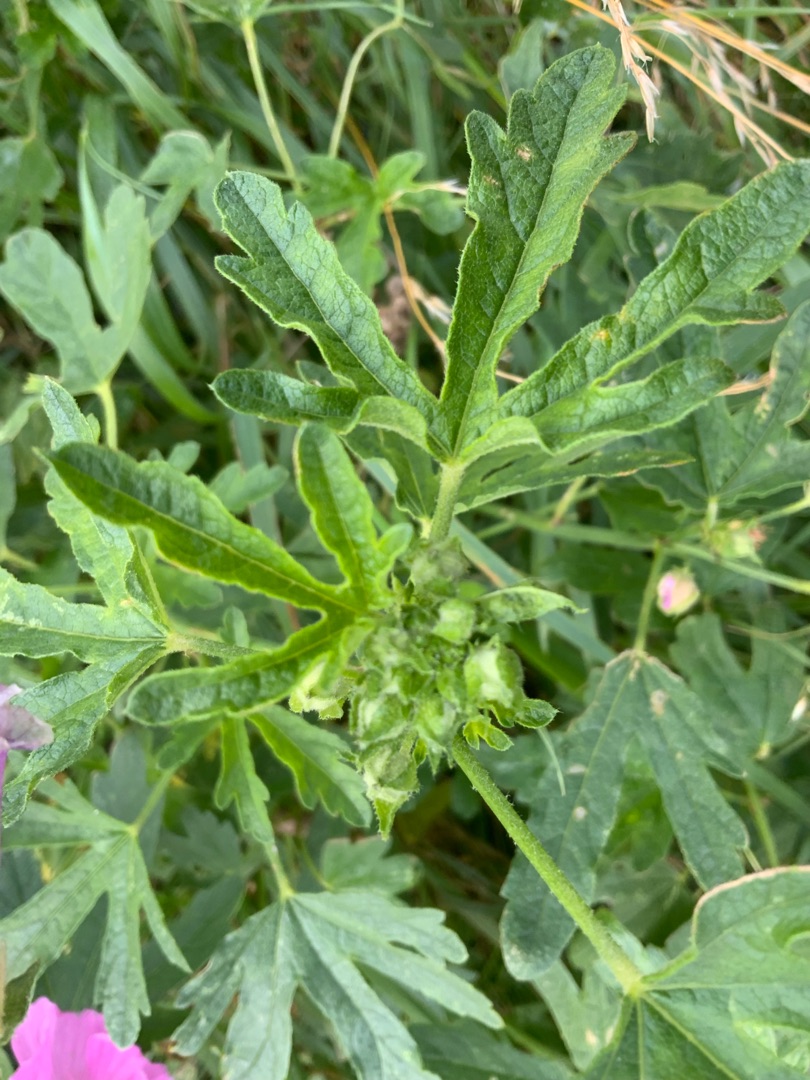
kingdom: Plantae
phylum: Tracheophyta
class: Magnoliopsida
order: Malvales
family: Malvaceae
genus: Malva
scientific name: Malva alcea
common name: Rosen-katost
